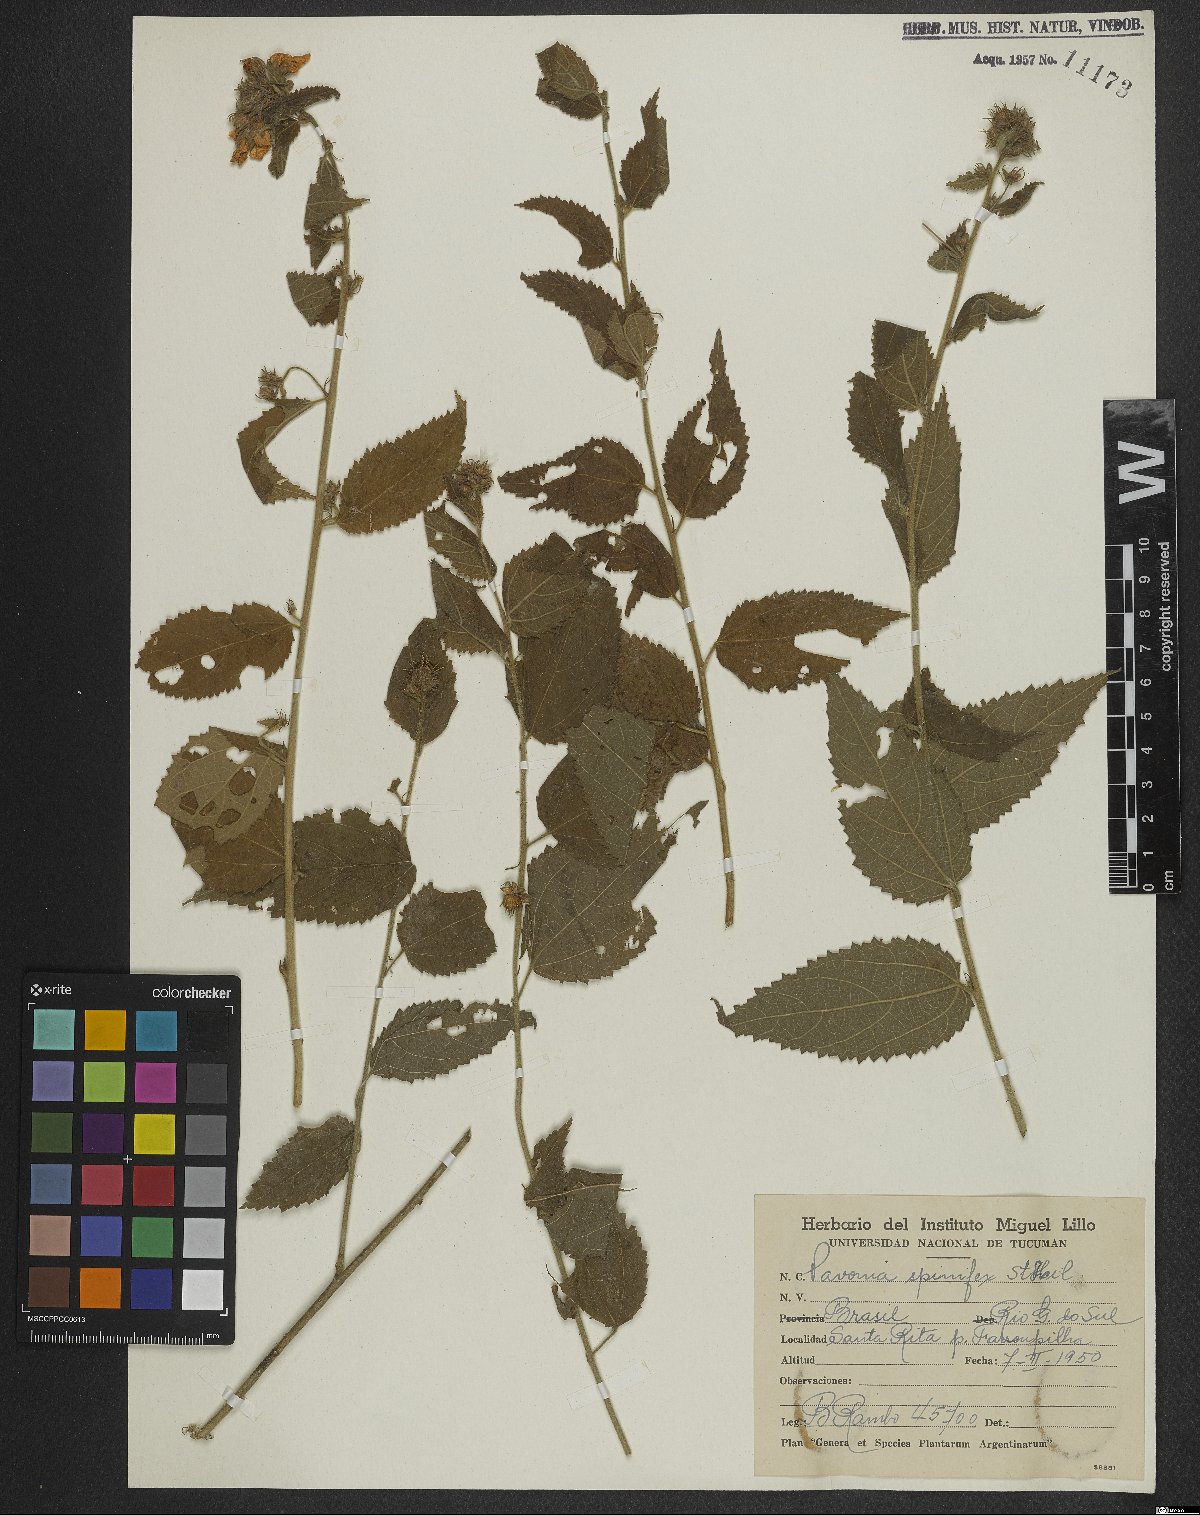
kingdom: Plantae
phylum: Tracheophyta
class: Magnoliopsida
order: Malvales
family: Malvaceae
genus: Pavonia
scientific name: Pavonia spinifex
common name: Ginger bush
